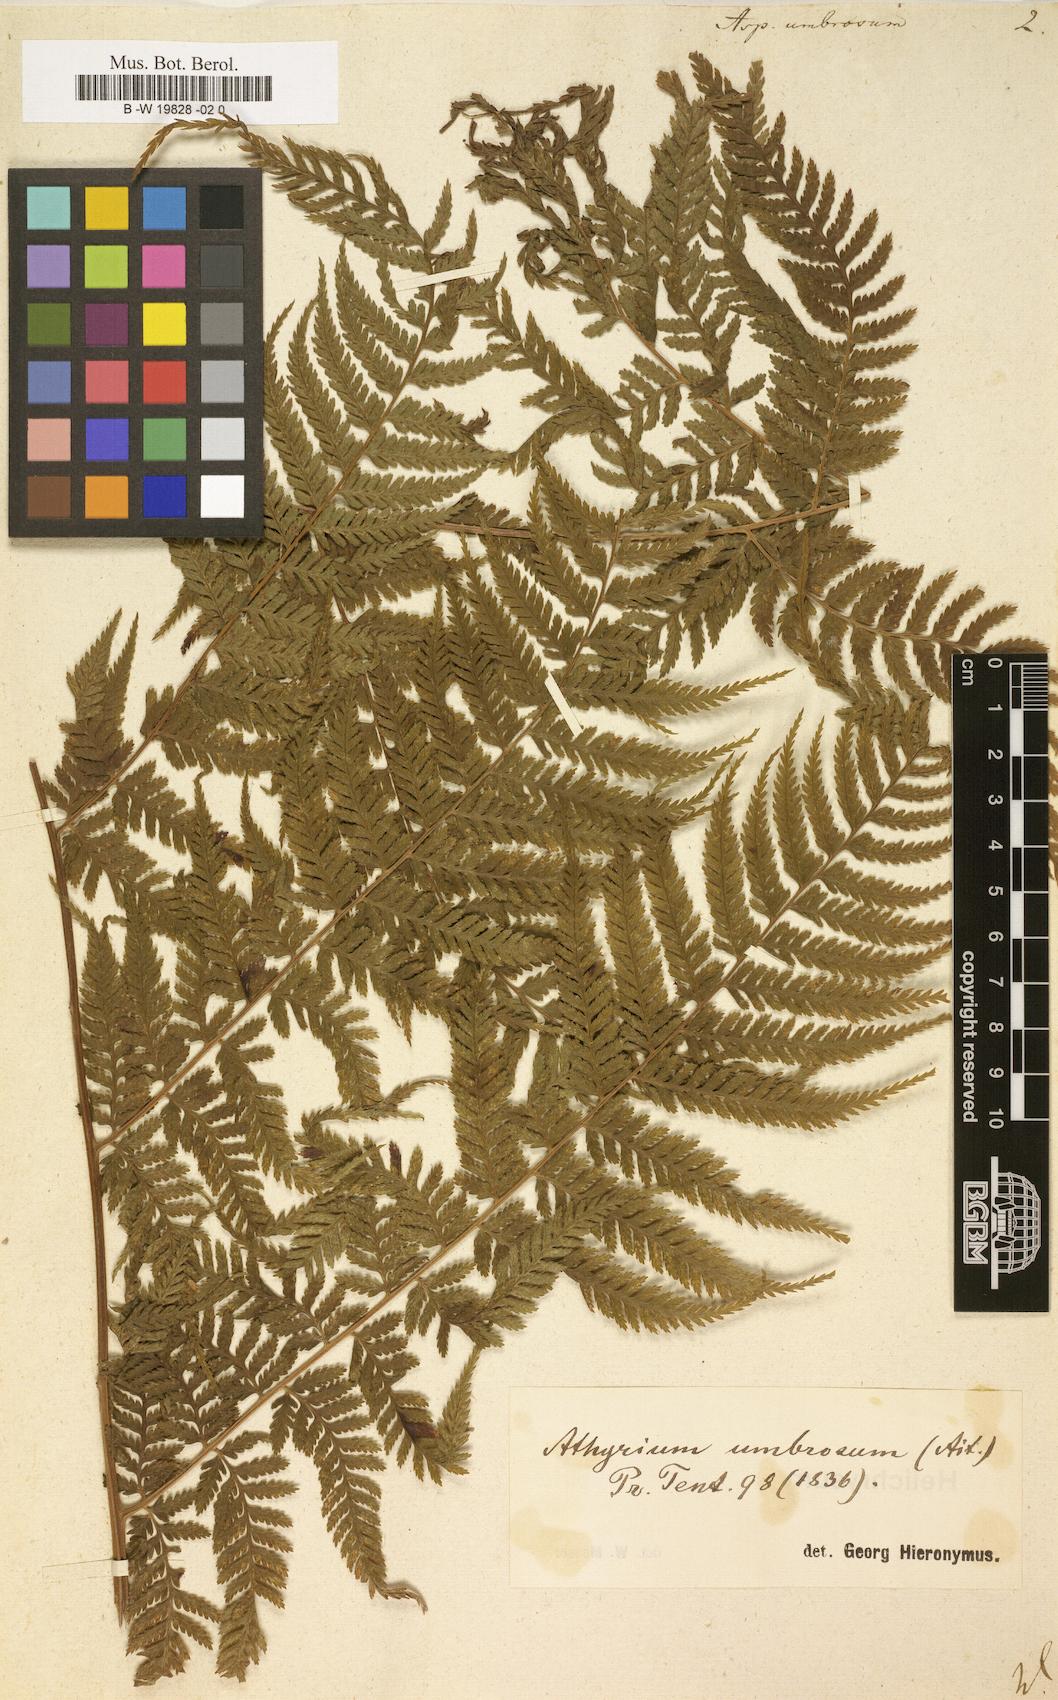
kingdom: Plantae
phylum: Tracheophyta
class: Polypodiopsida
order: Polypodiales
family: Athyriaceae
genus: Diplazium
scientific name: Diplazium caudatum
